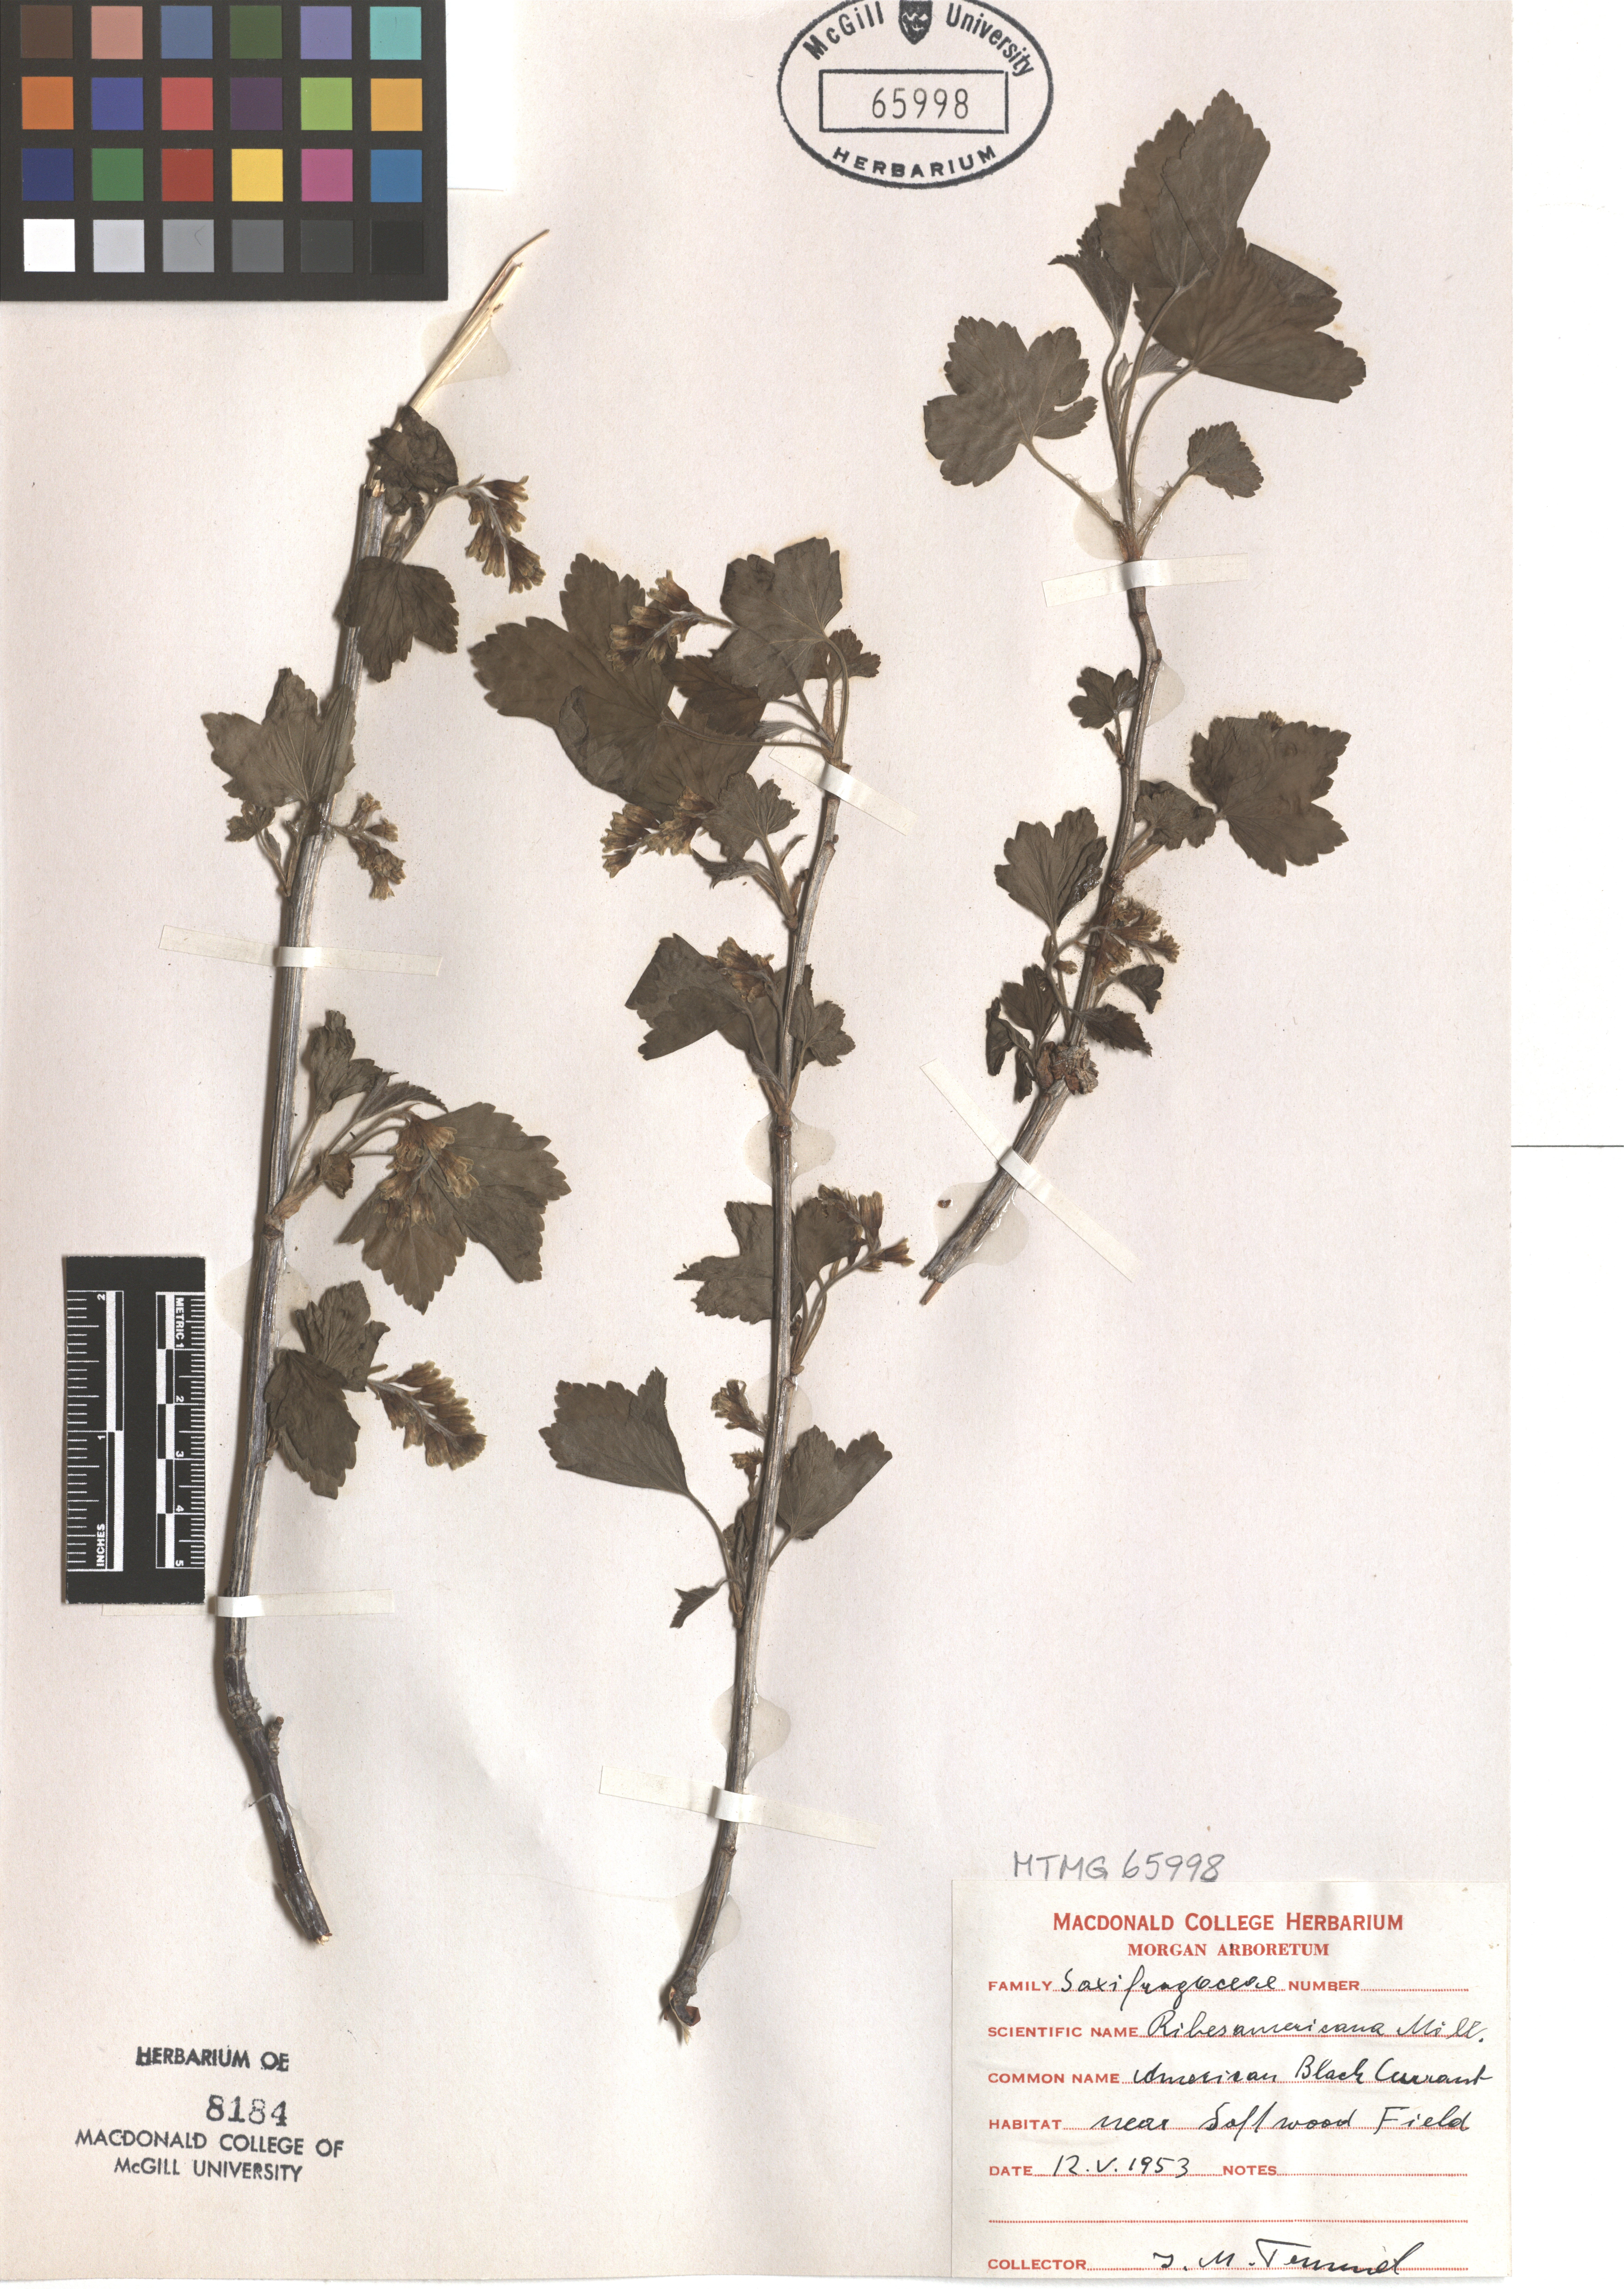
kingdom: Plantae
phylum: Tracheophyta
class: Magnoliopsida
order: Saxifragales
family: Grossulariaceae
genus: Ribes
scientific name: Ribes americanum
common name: American black currant
